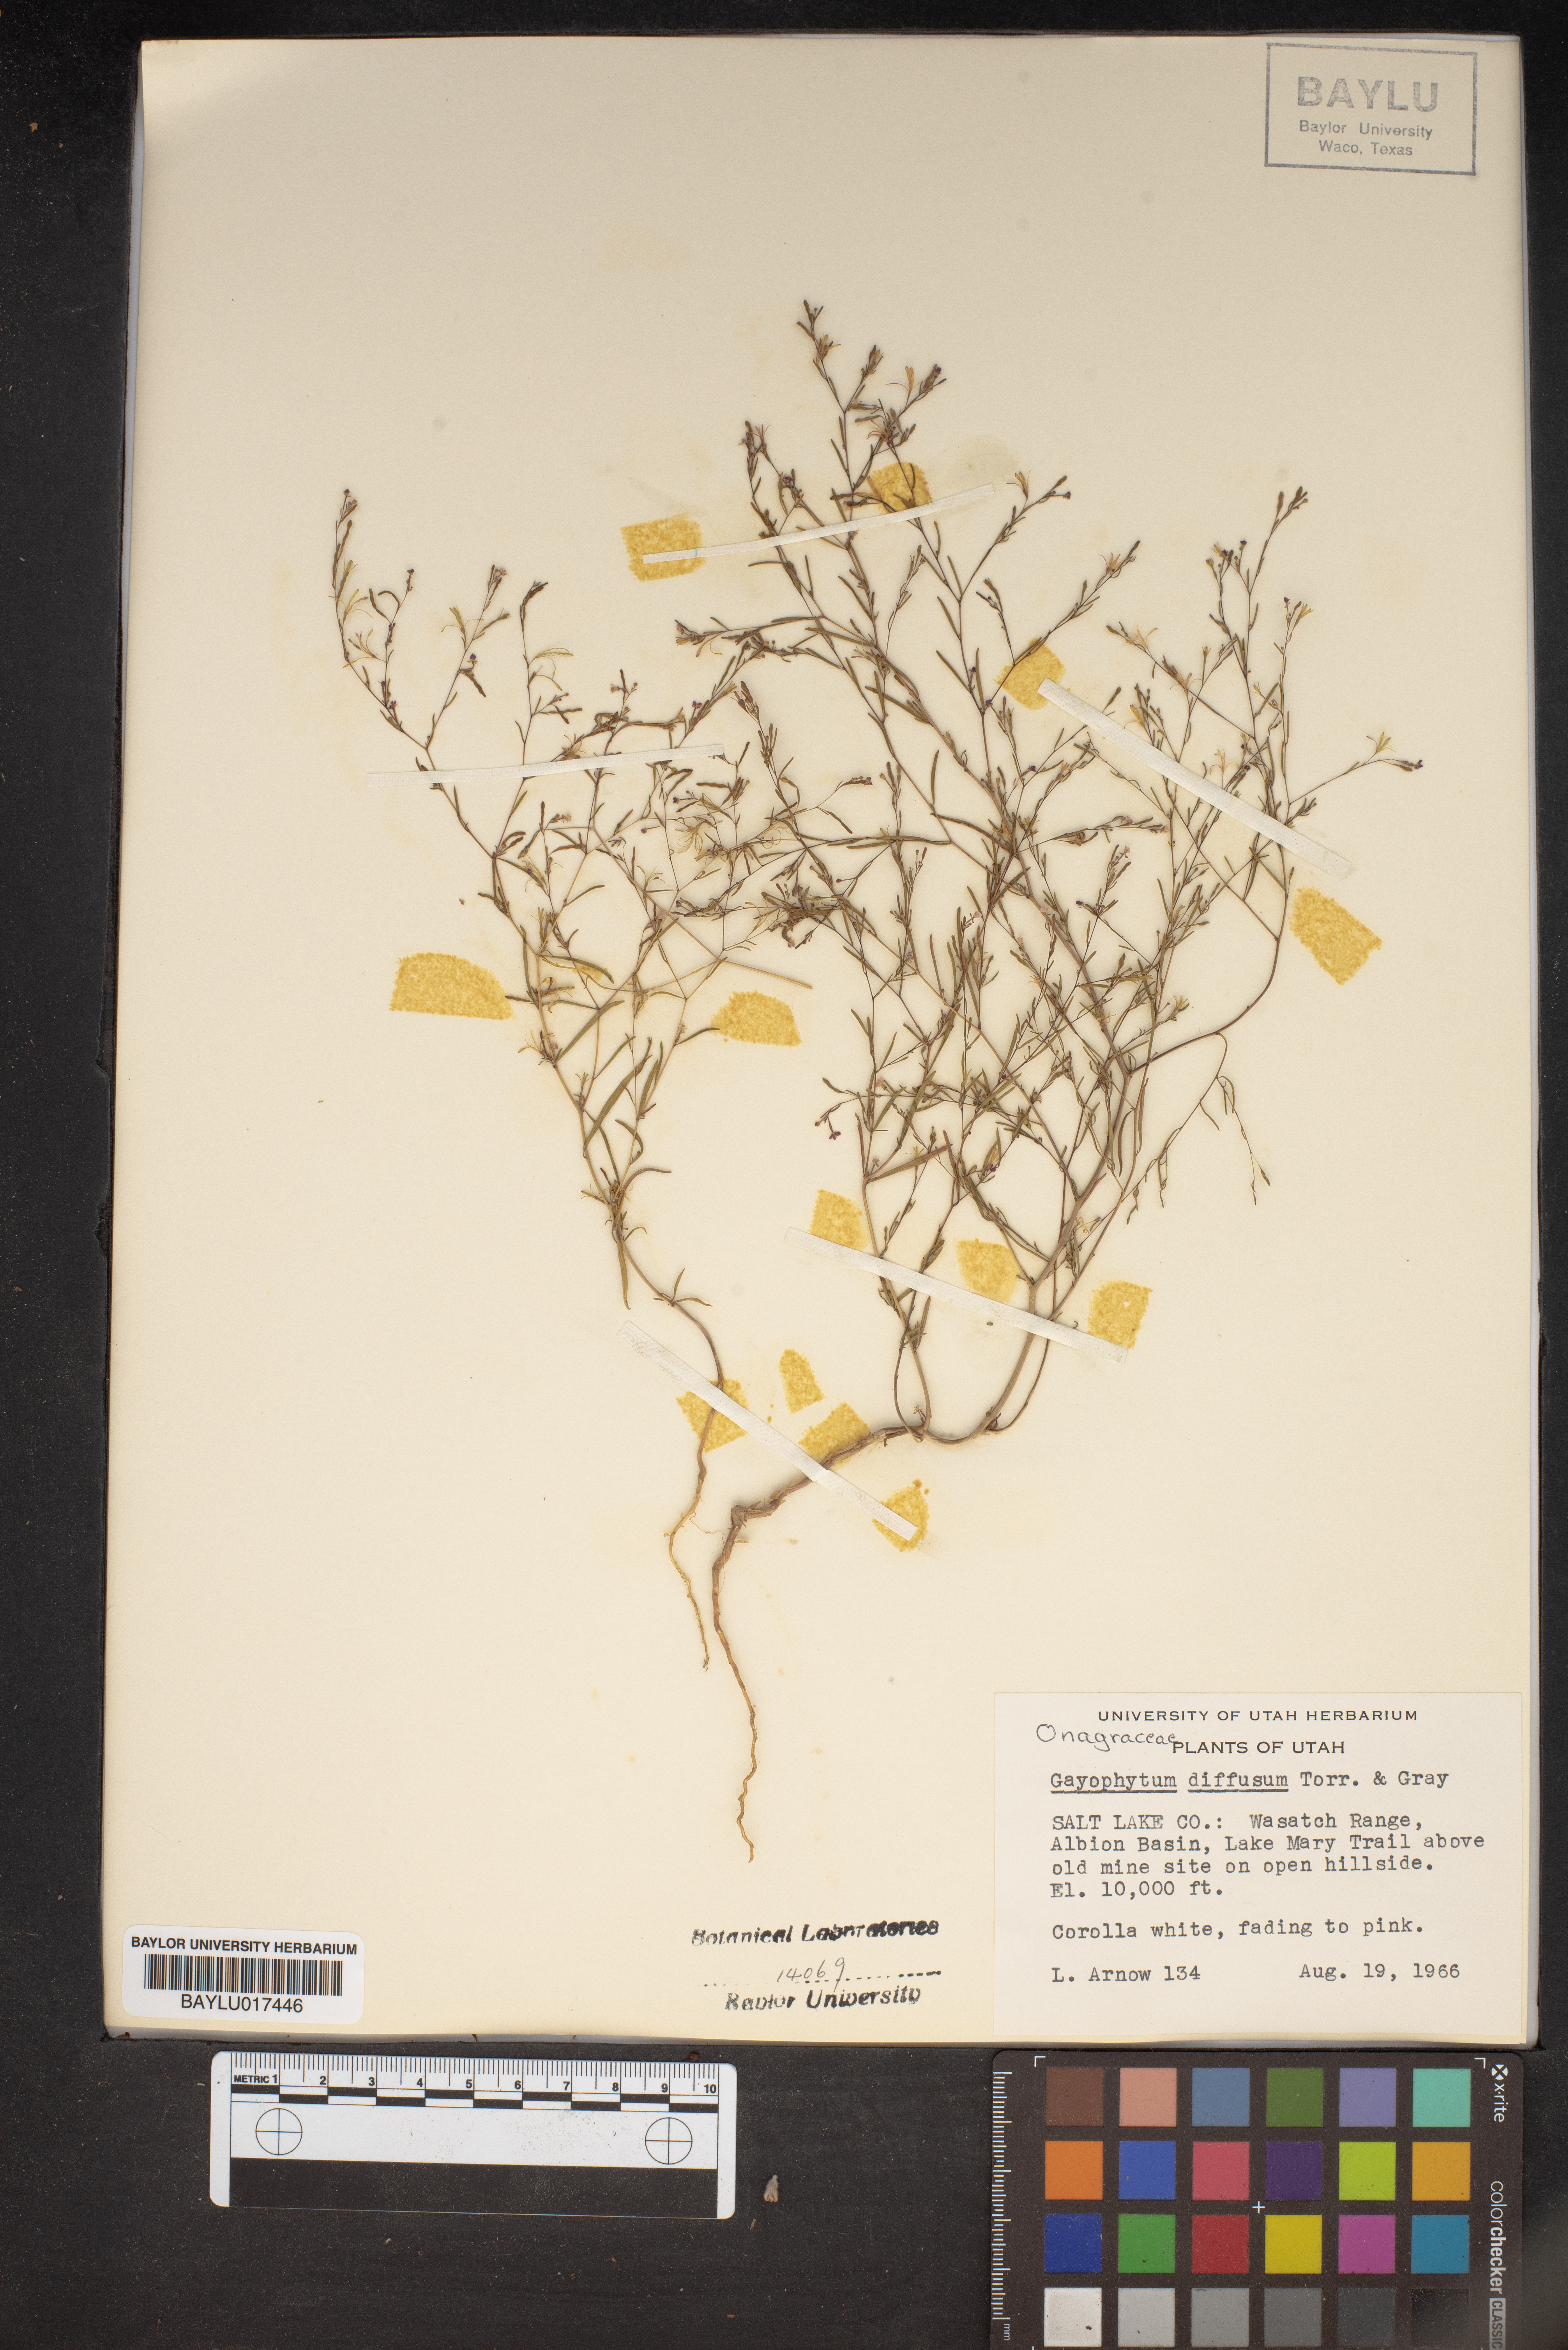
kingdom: Plantae
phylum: Tracheophyta
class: Magnoliopsida
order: Myrtales
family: Onagraceae
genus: Gayophytum
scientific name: Gayophytum diffusum
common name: Big-flowered groundsmoke
